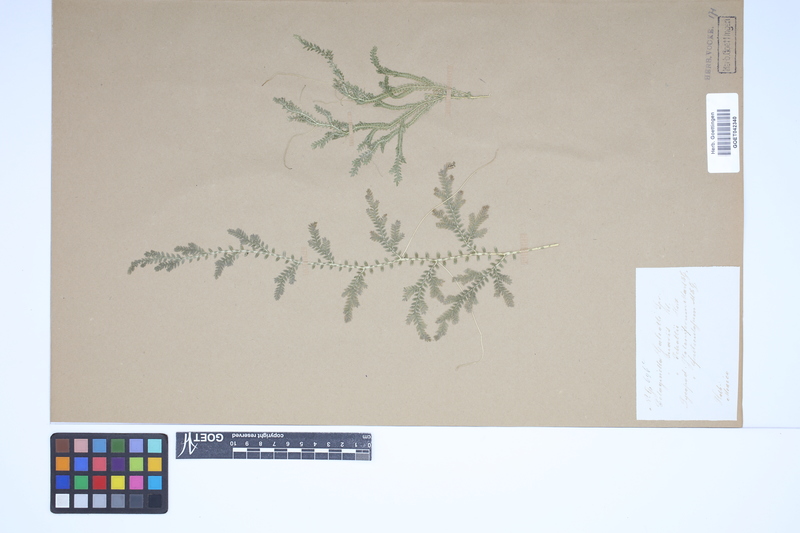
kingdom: Plantae
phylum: Tracheophyta
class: Lycopodiopsida
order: Selaginellales
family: Selaginellaceae
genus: Selaginella
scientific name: Selaginella stellata
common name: Starry spikemoss
